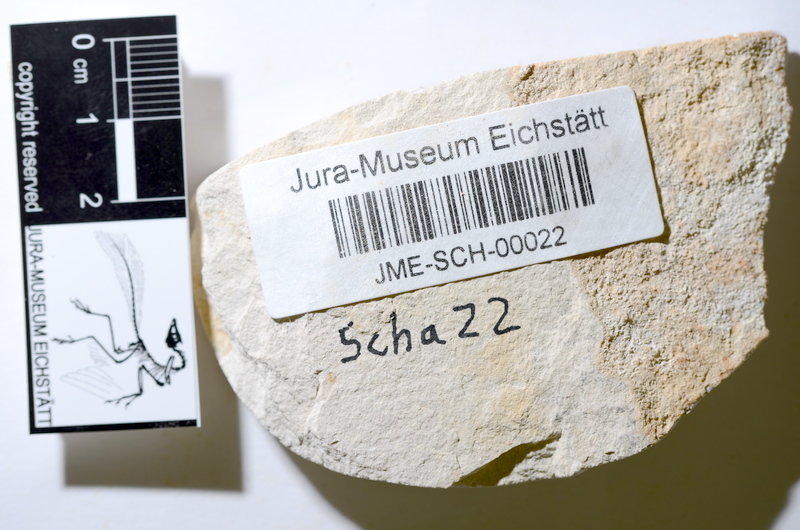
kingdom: Animalia
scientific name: Animalia
